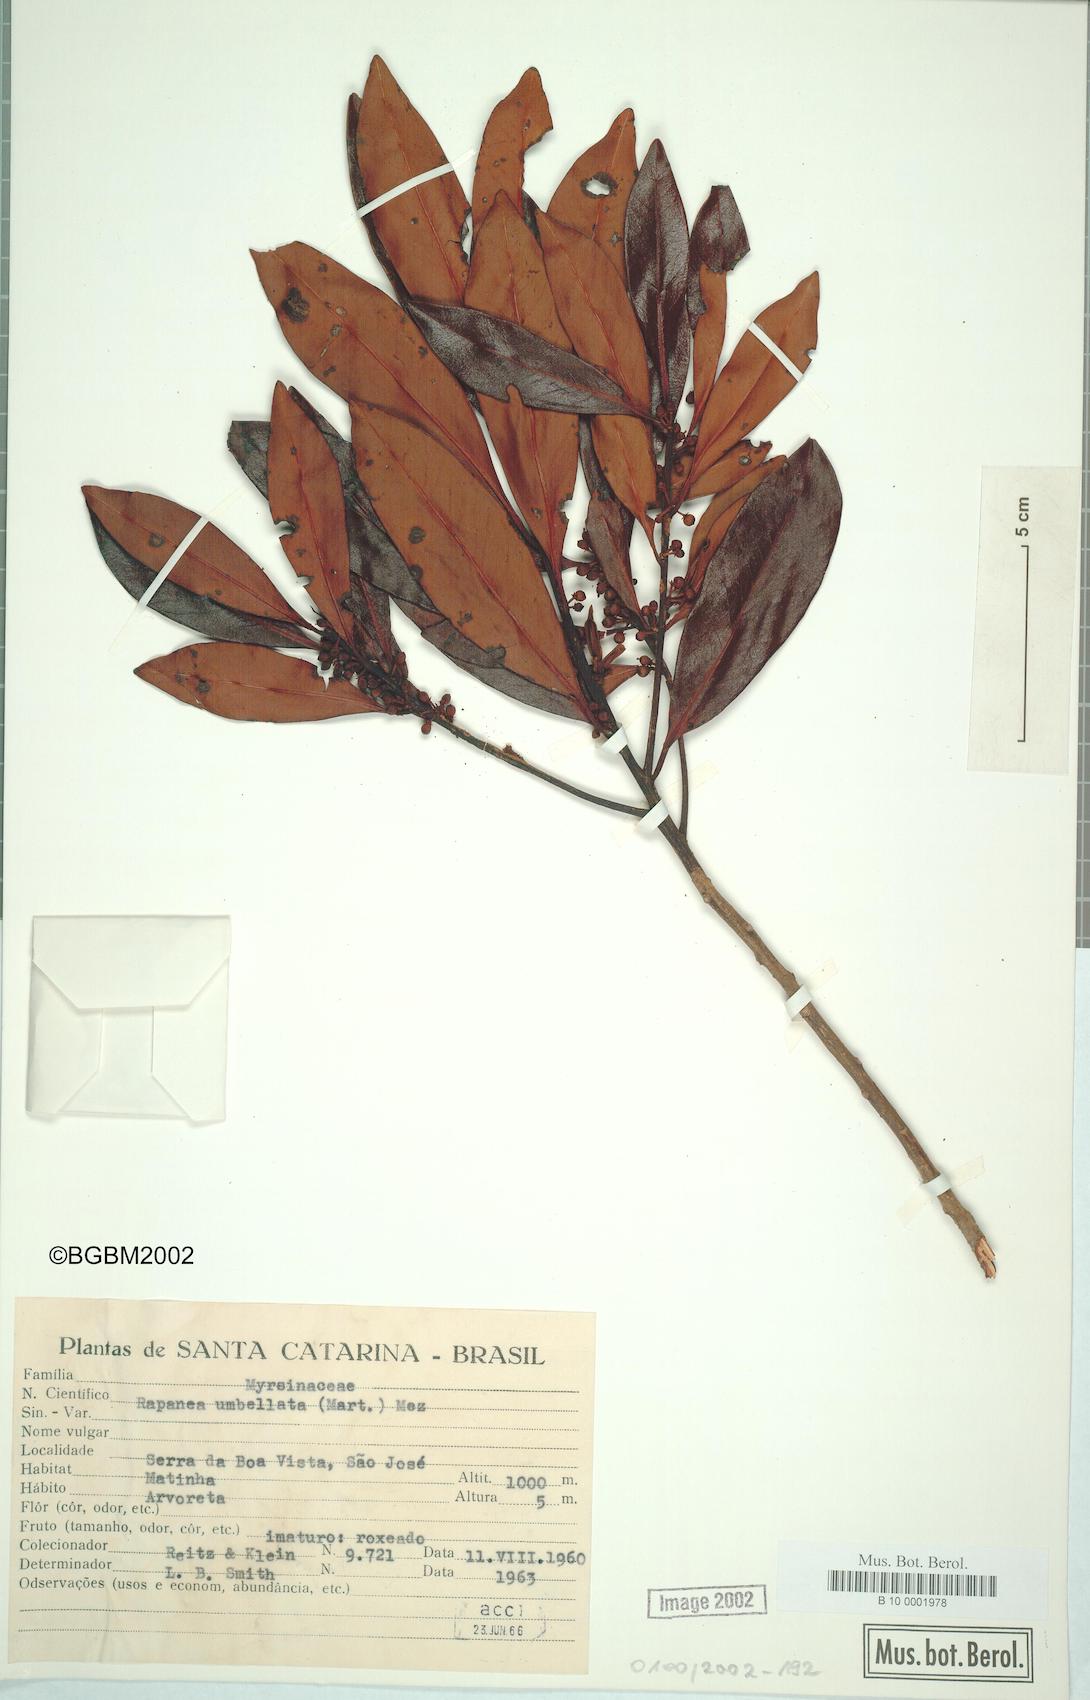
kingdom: Plantae
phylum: Tracheophyta
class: Magnoliopsida
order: Ericales
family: Primulaceae
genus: Myrsine
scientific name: Myrsine umbellata
